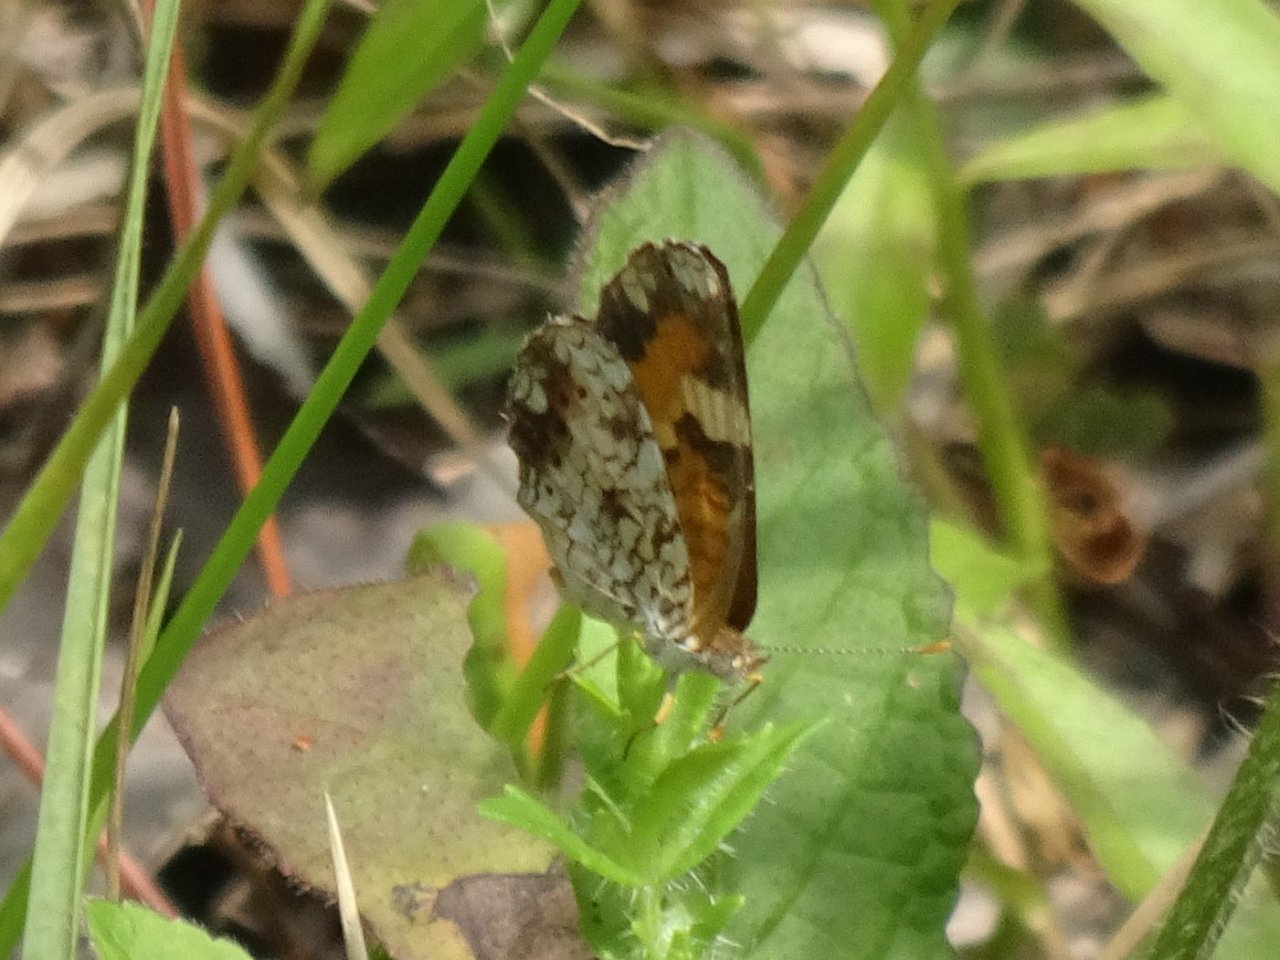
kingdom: Animalia
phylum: Arthropoda
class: Insecta
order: Lepidoptera
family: Nymphalidae
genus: Phyciodes
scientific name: Phyciodes phaon
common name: Phaon Crescent
